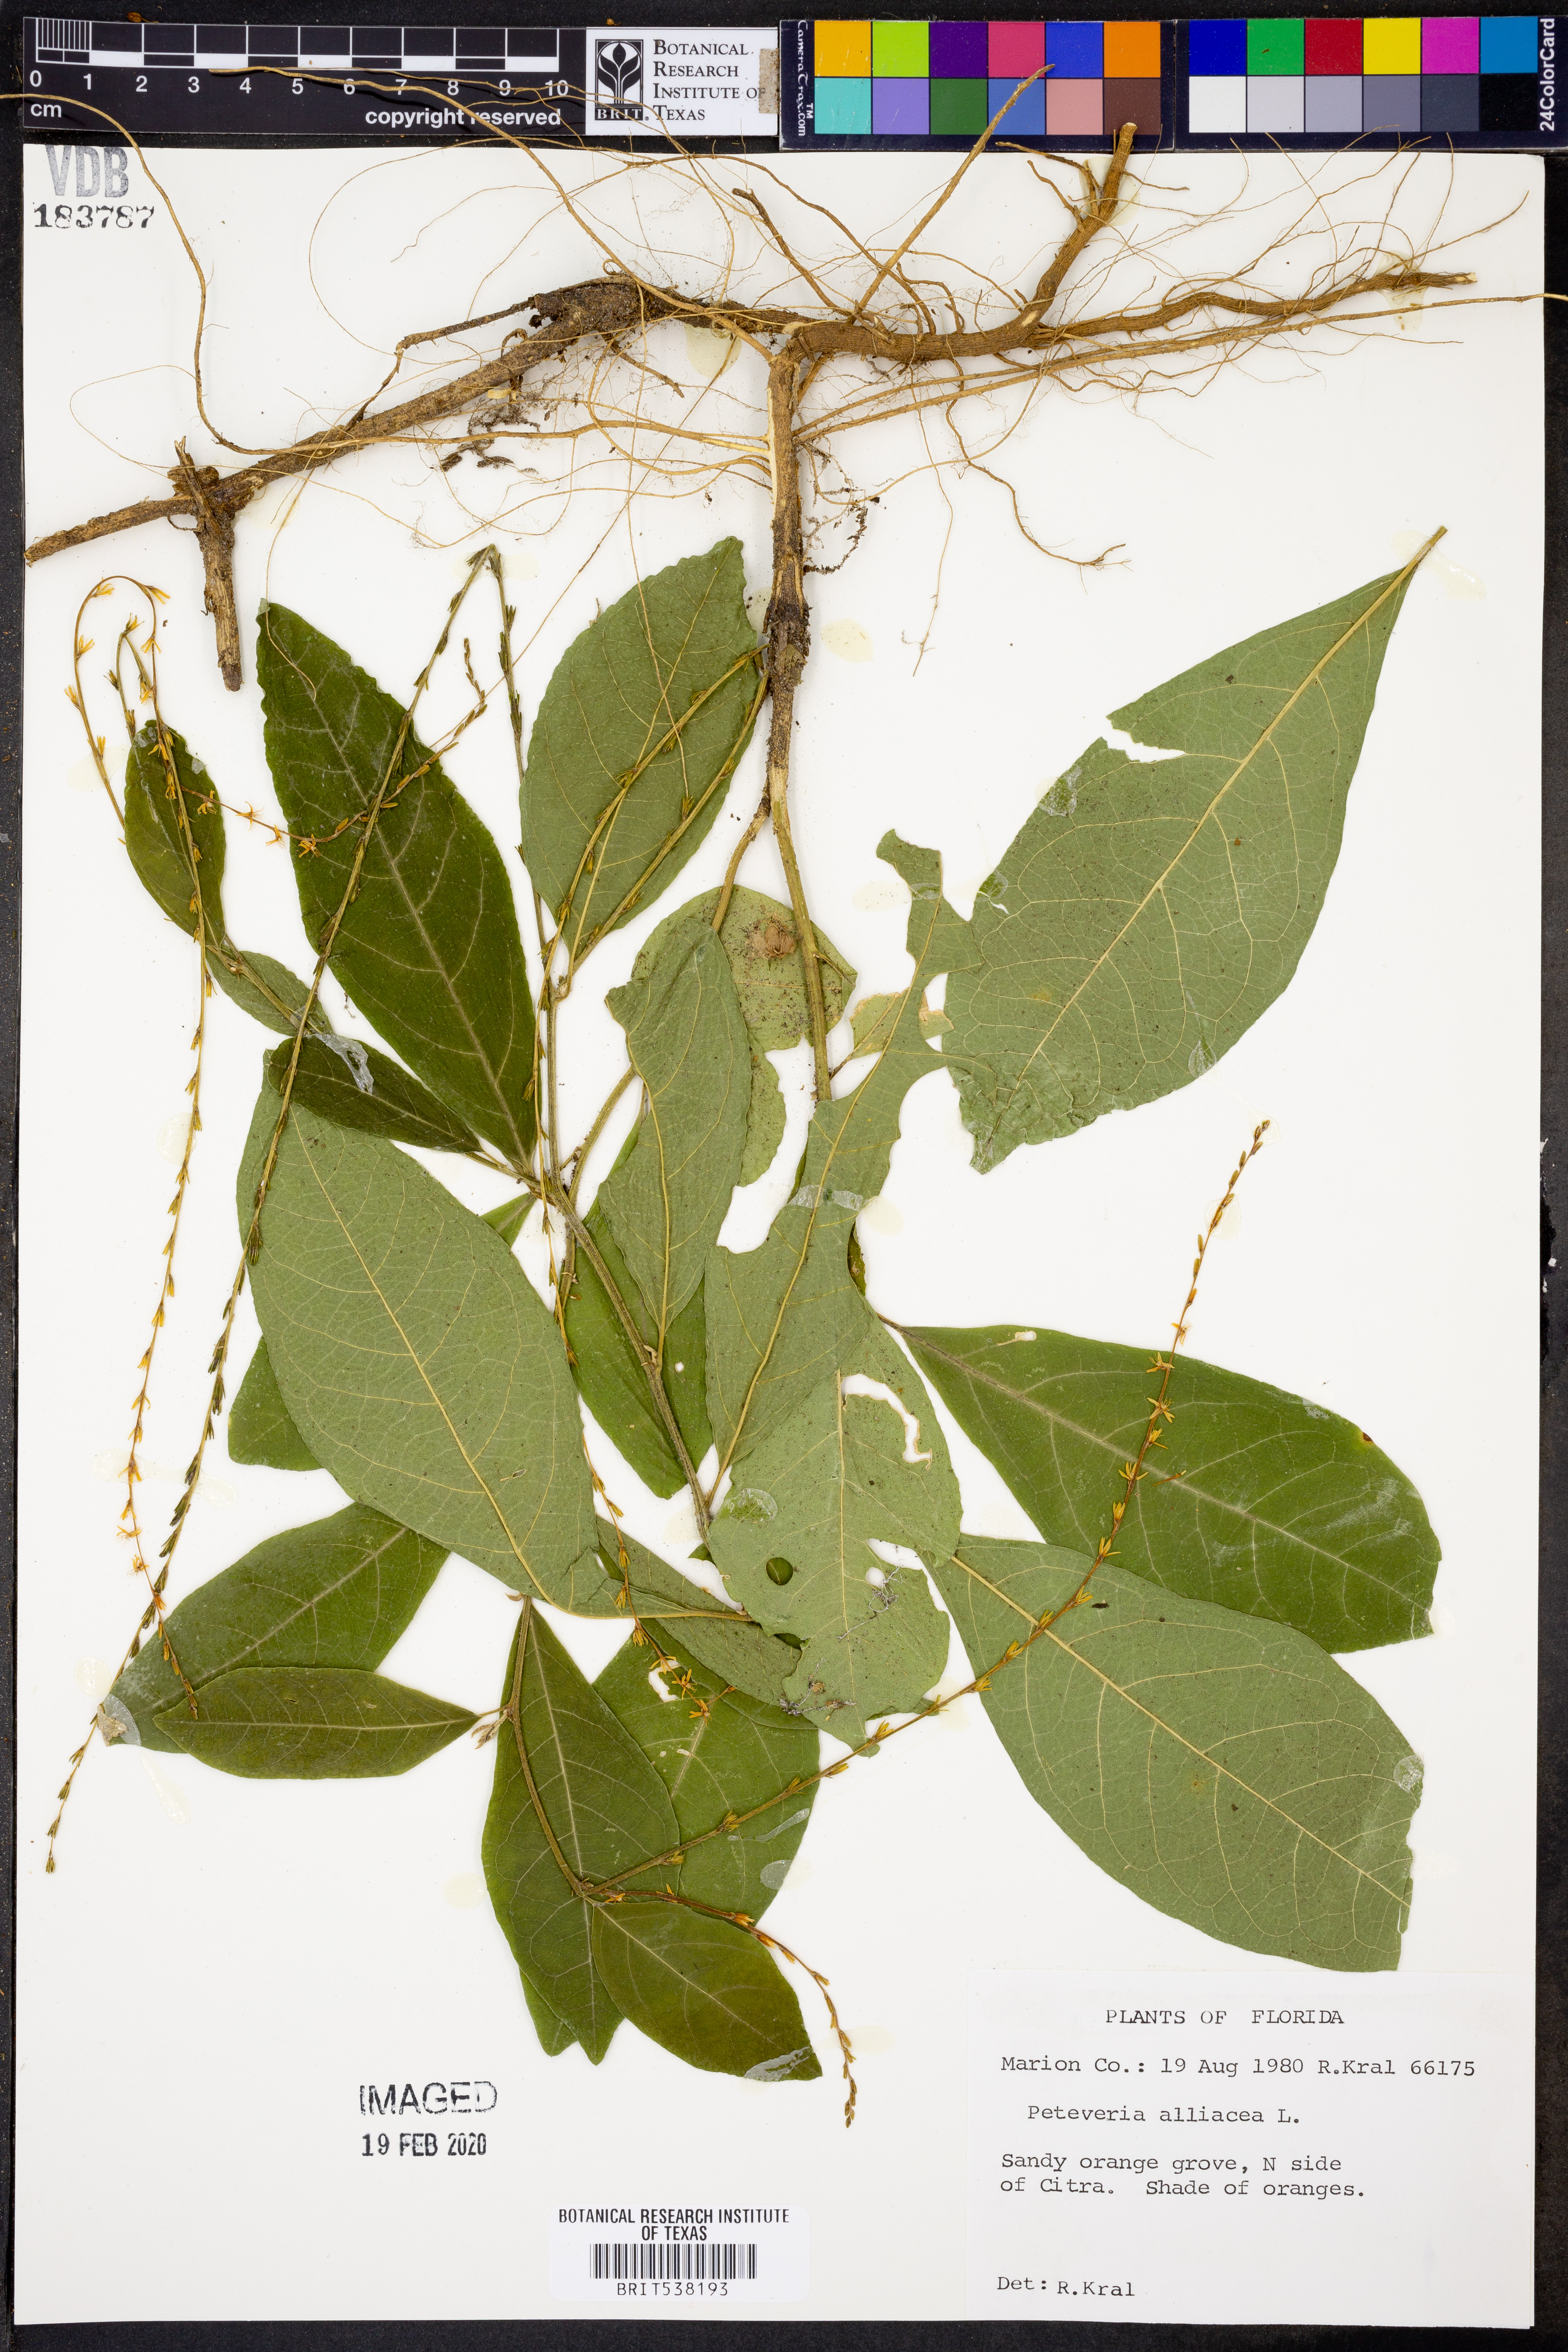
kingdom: Plantae
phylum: Tracheophyta
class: Magnoliopsida
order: Caryophyllales
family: Phytolaccaceae
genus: Petiveria
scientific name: Petiveria alliacea
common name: Garlicweed
